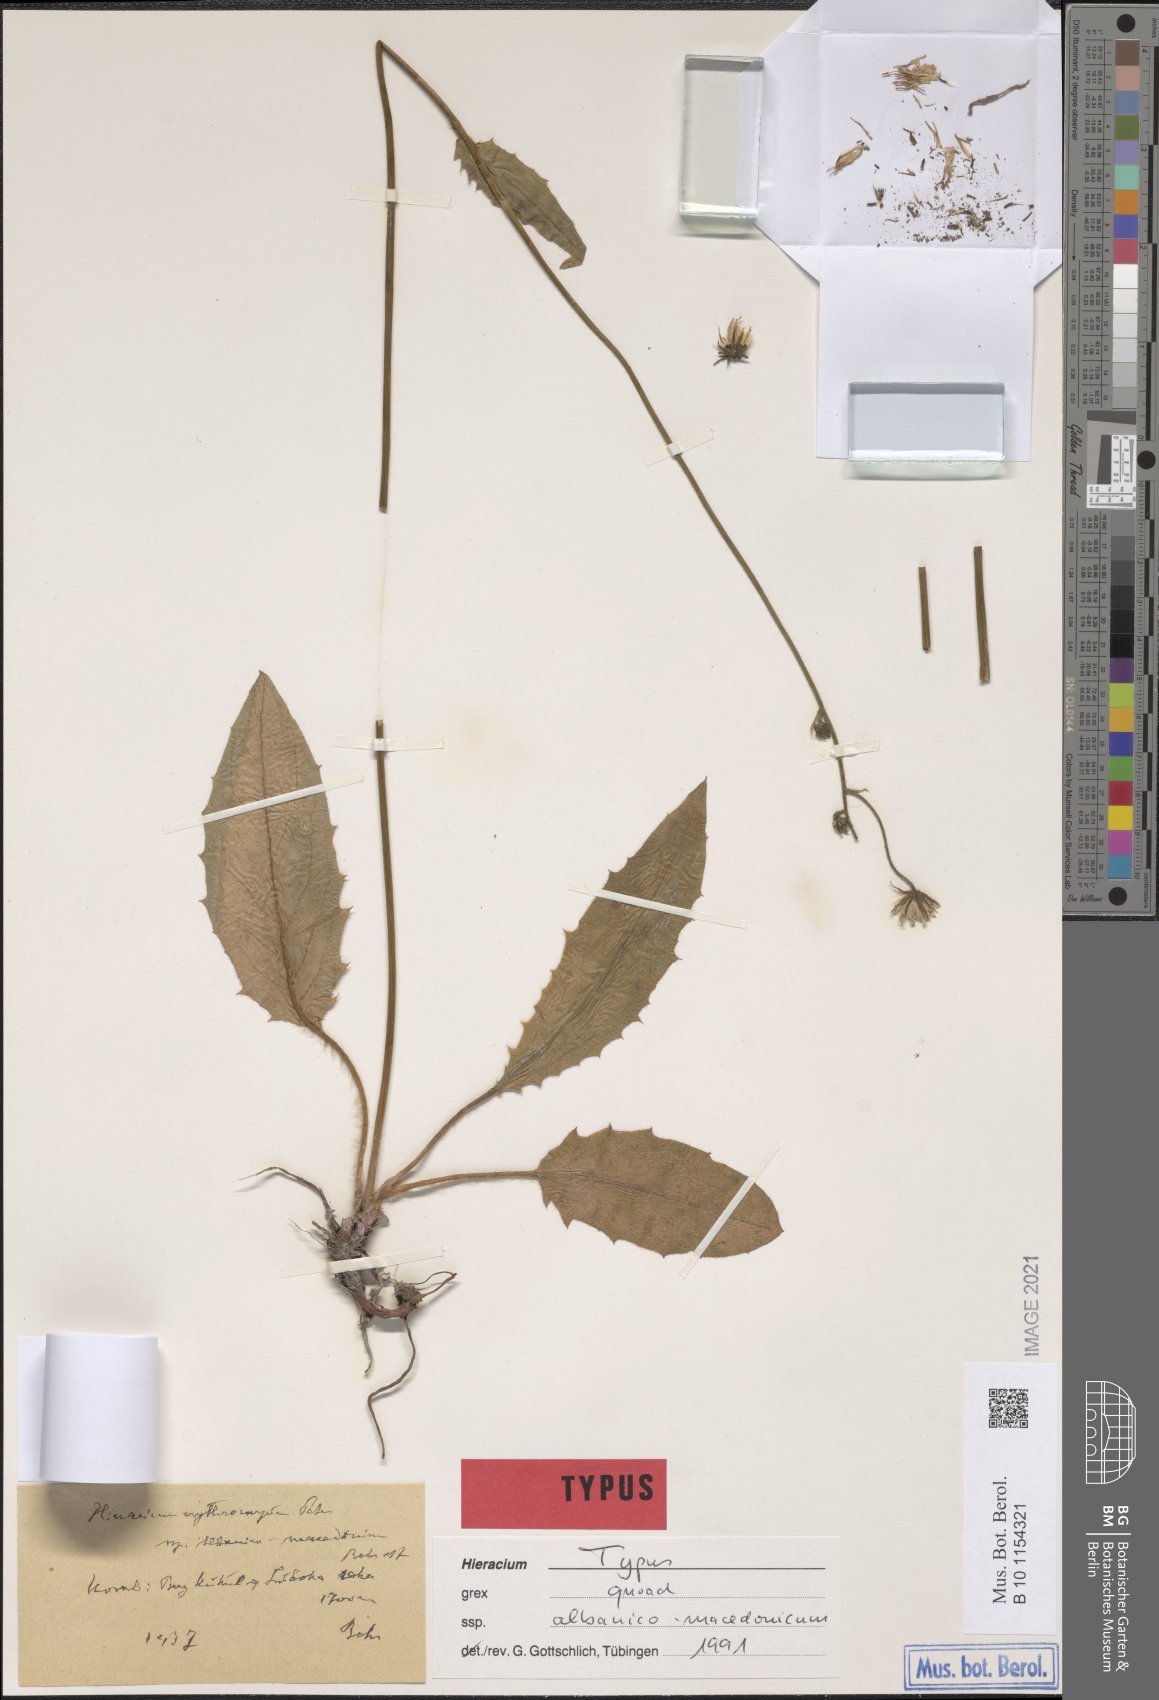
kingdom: Plantae
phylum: Tracheophyta
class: Magnoliopsida
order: Asterales
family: Asteraceae
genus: Hieracium
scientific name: Hieracium transiens
